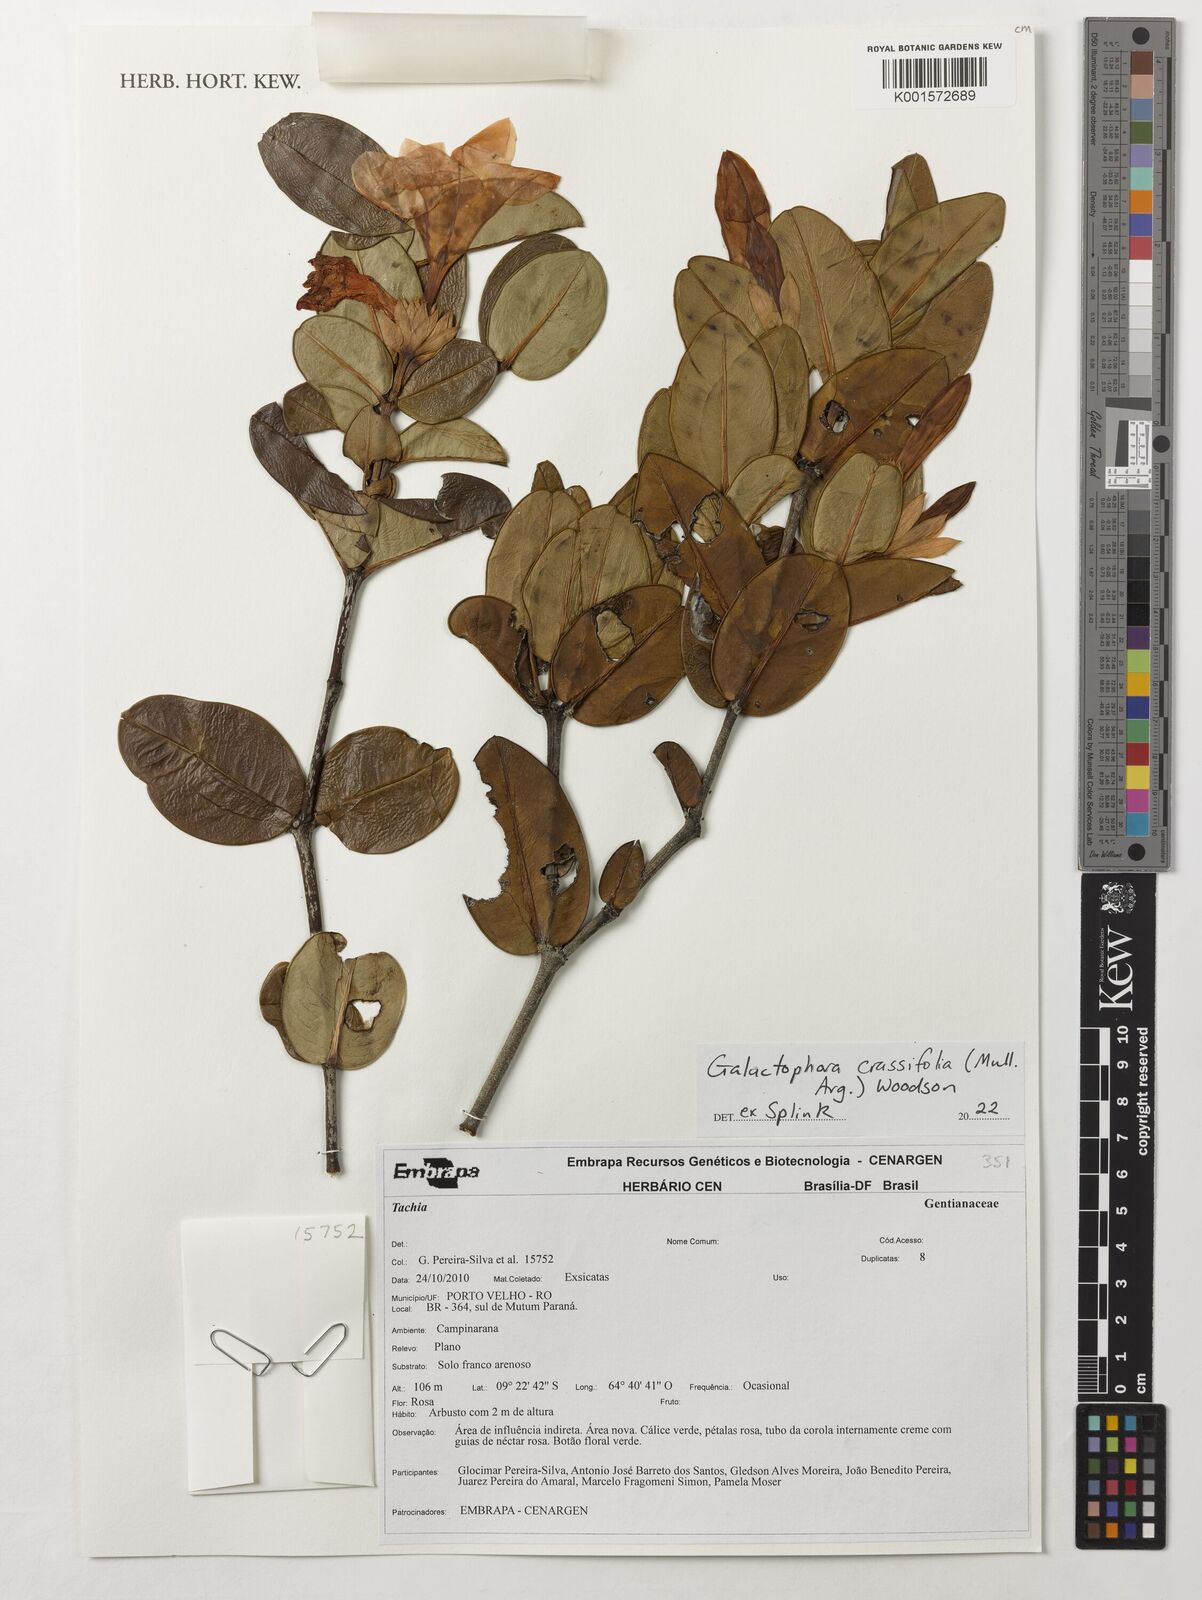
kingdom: Plantae
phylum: Tracheophyta
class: Magnoliopsida
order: Gentianales
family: Apocynaceae
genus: Galactophora
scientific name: Galactophora crassifolia
